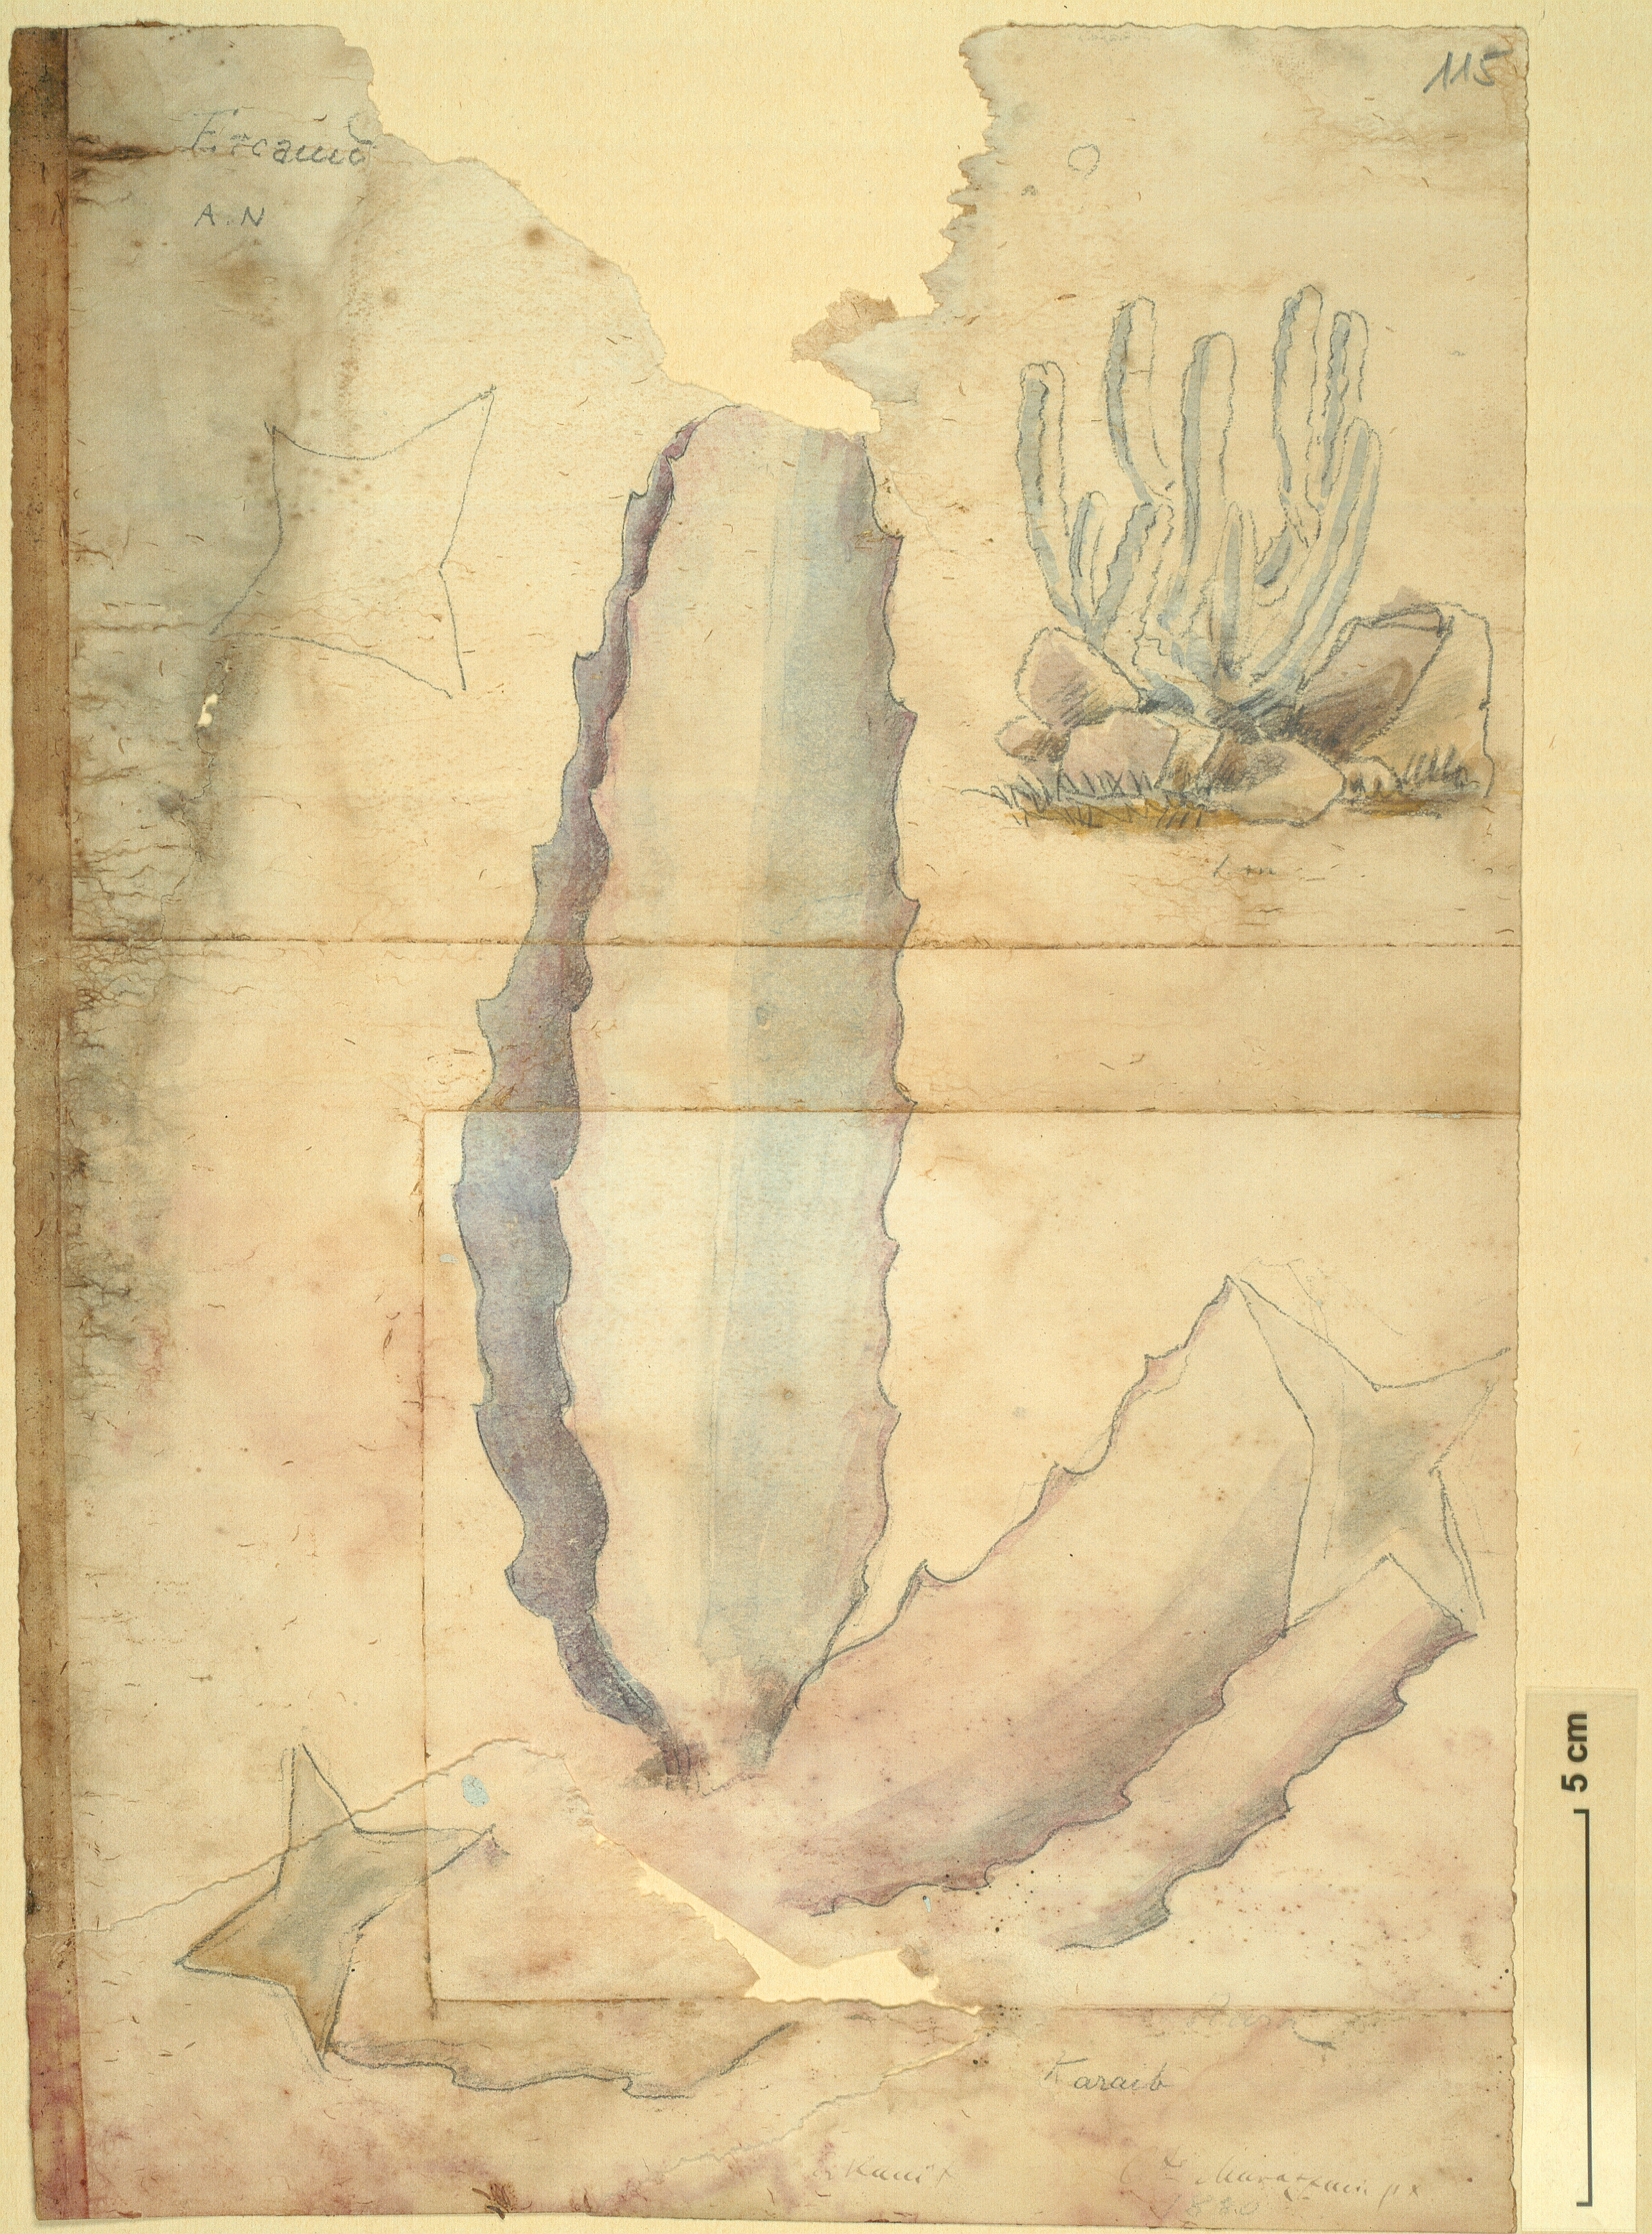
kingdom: Plantae
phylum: Tracheophyta
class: Magnoliopsida
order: Gentianales
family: Apocynaceae
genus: Caralluma
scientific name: Caralluma
